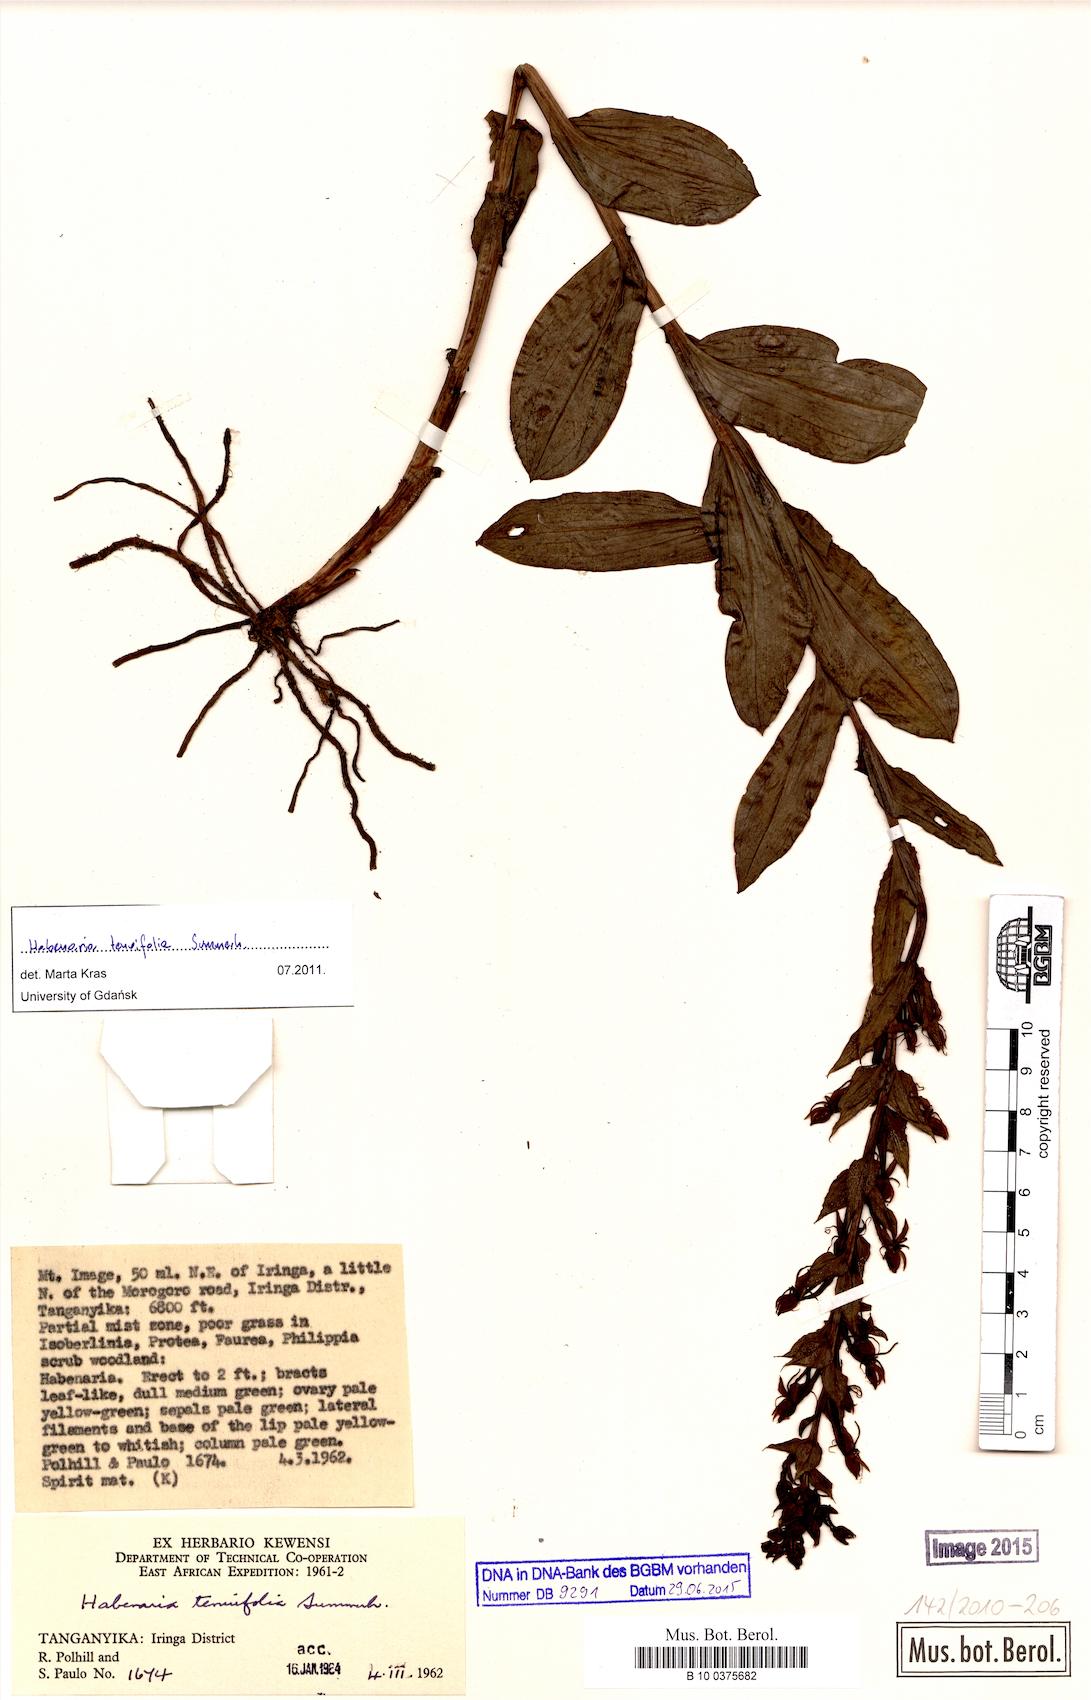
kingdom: Plantae
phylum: Tracheophyta
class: Liliopsida
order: Asparagales
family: Orchidaceae
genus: Habenaria
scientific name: Habenaria uhehensis
